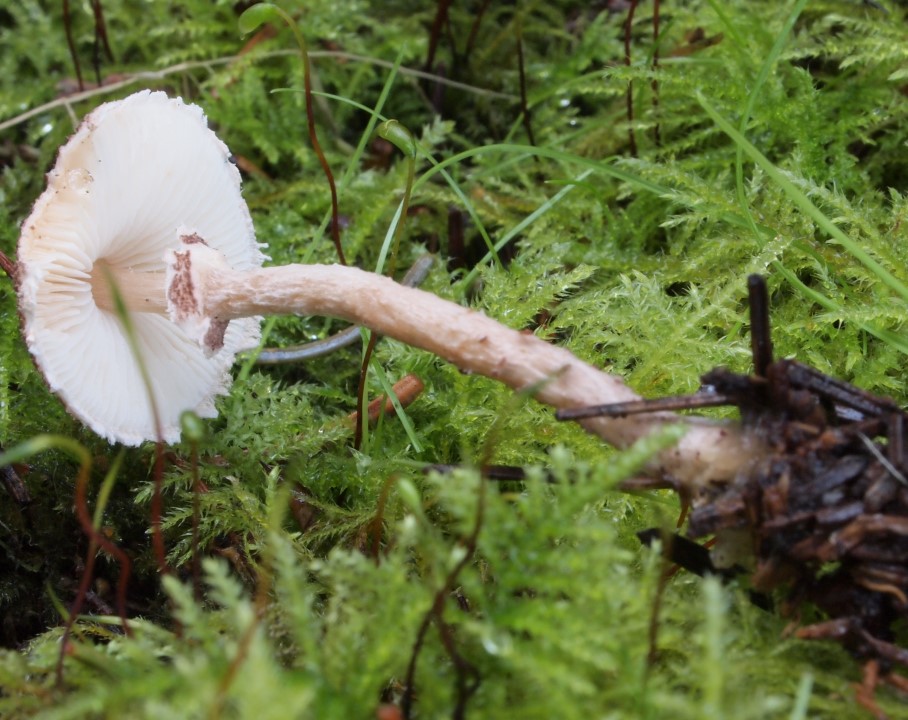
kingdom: Fungi
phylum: Basidiomycota
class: Agaricomycetes
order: Agaricales
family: Agaricaceae
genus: Lepiota
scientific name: Lepiota felina
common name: sortskællet parasolhat
